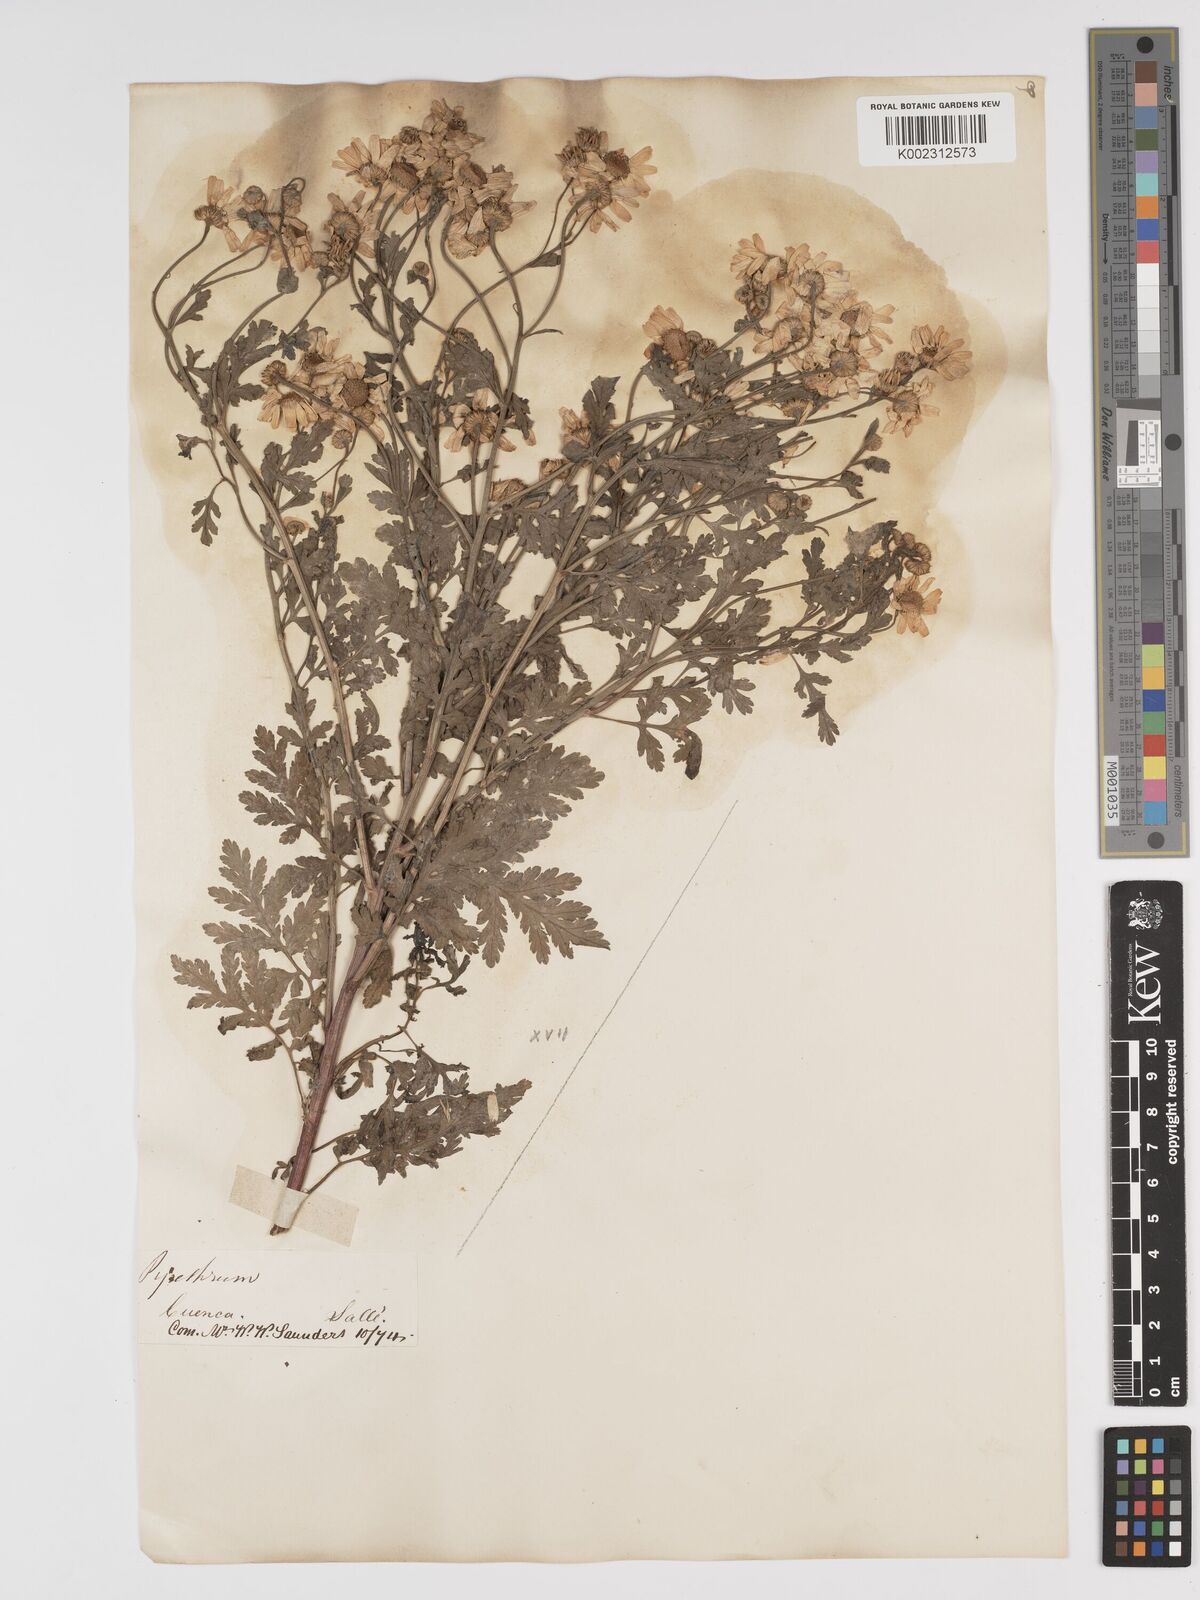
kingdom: Plantae
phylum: Tracheophyta
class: Magnoliopsida
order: Asterales
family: Asteraceae
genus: Tanacetum
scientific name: Tanacetum parthenium
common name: Feverfew
